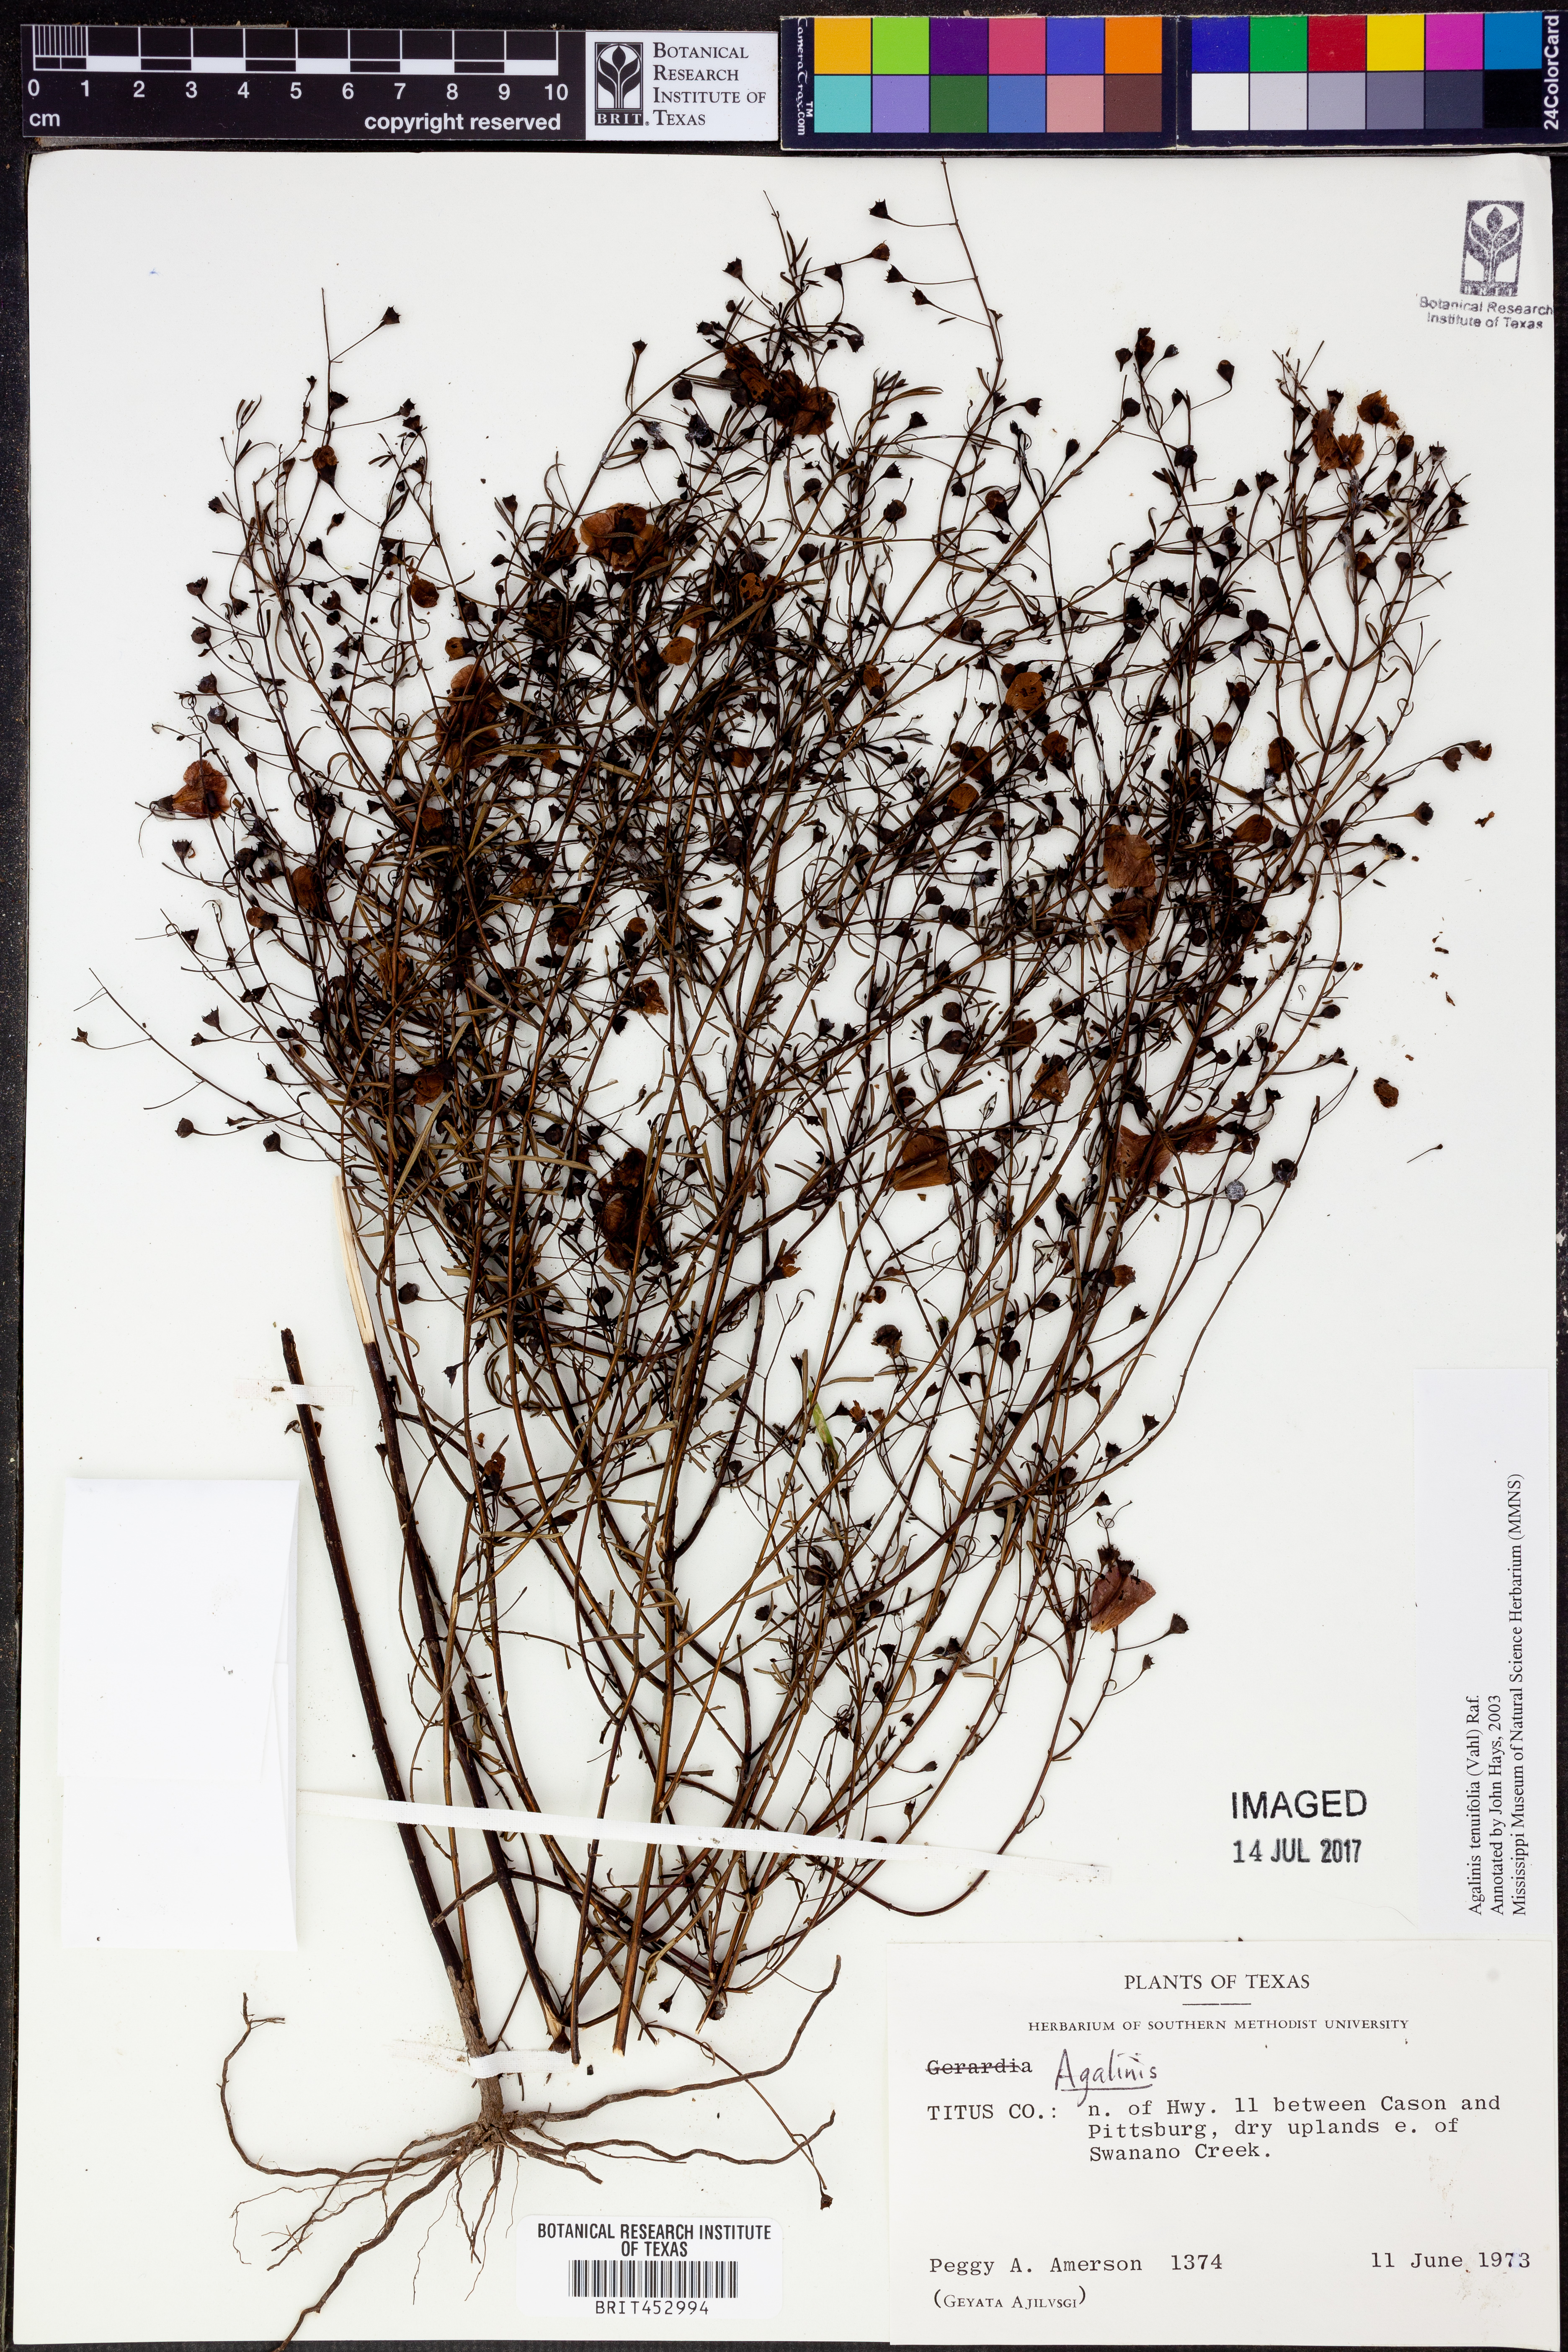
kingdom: Plantae
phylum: Tracheophyta
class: Magnoliopsida
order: Lamiales
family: Orobanchaceae
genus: Agalinis
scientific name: Agalinis tenuifolia
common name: Slender agalinis
